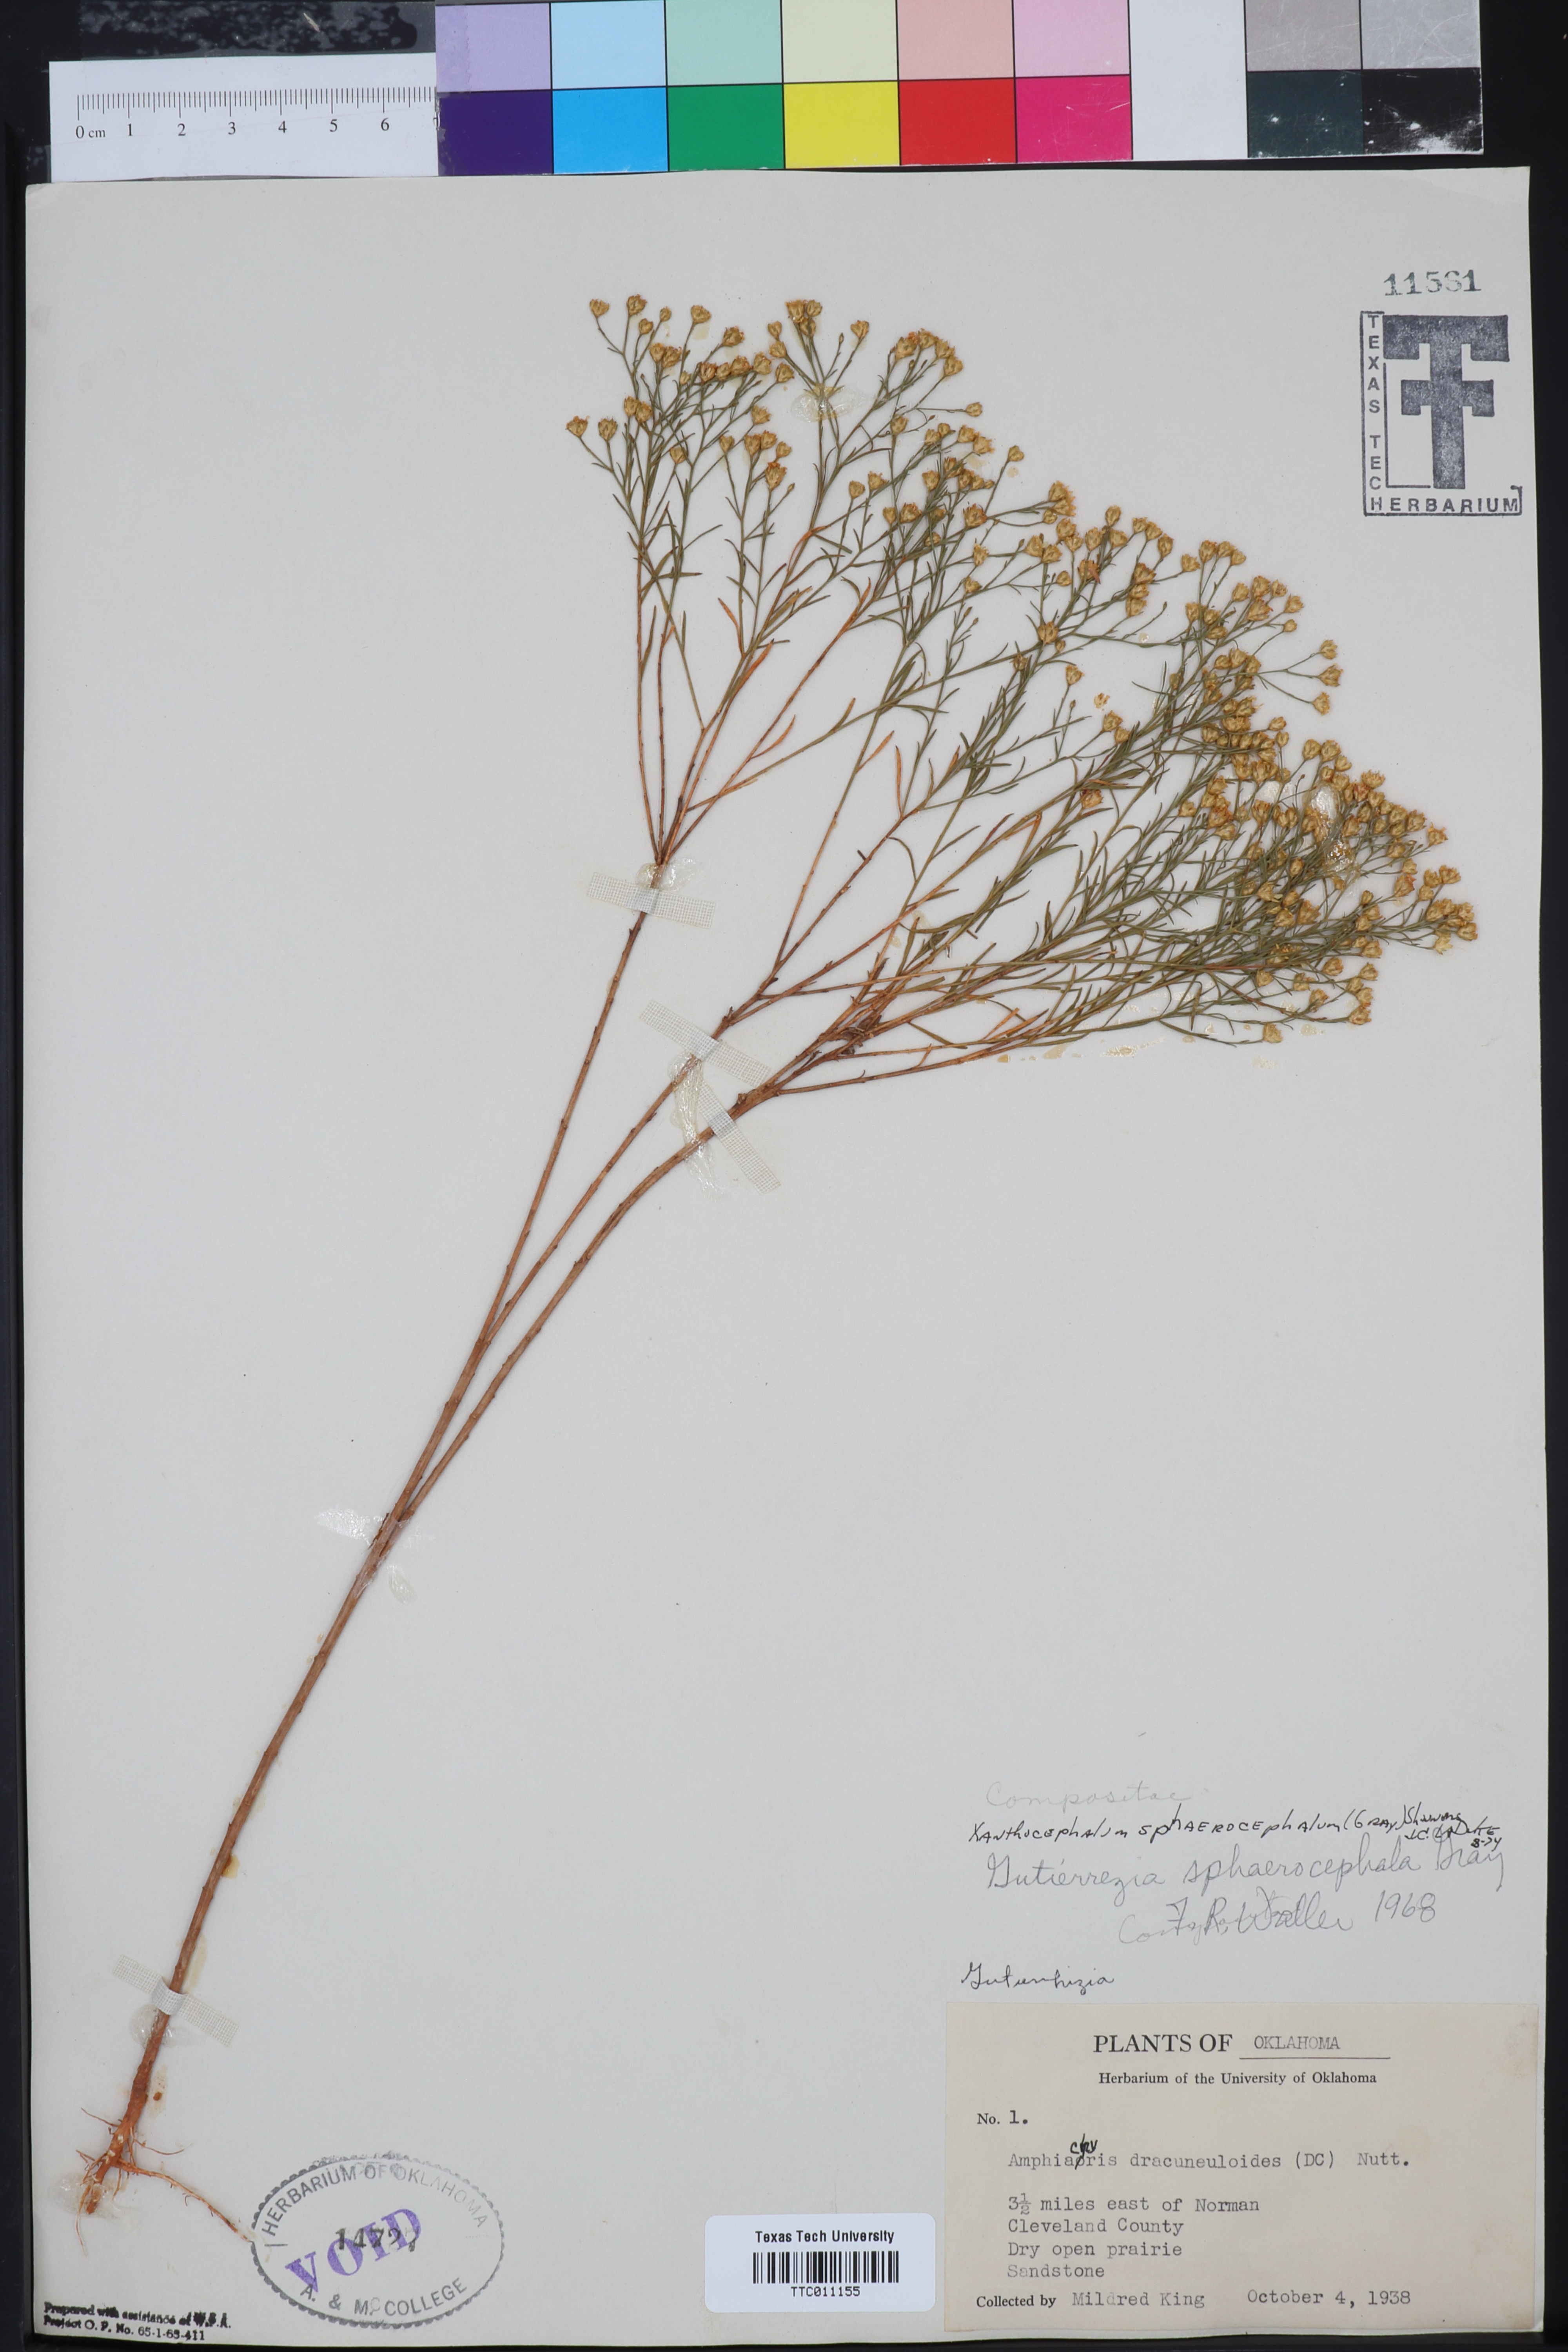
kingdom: Plantae
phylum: Tracheophyta
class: Magnoliopsida
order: Asterales
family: Asteraceae
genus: Gutierrezia
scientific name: Gutierrezia sphaerocephala
